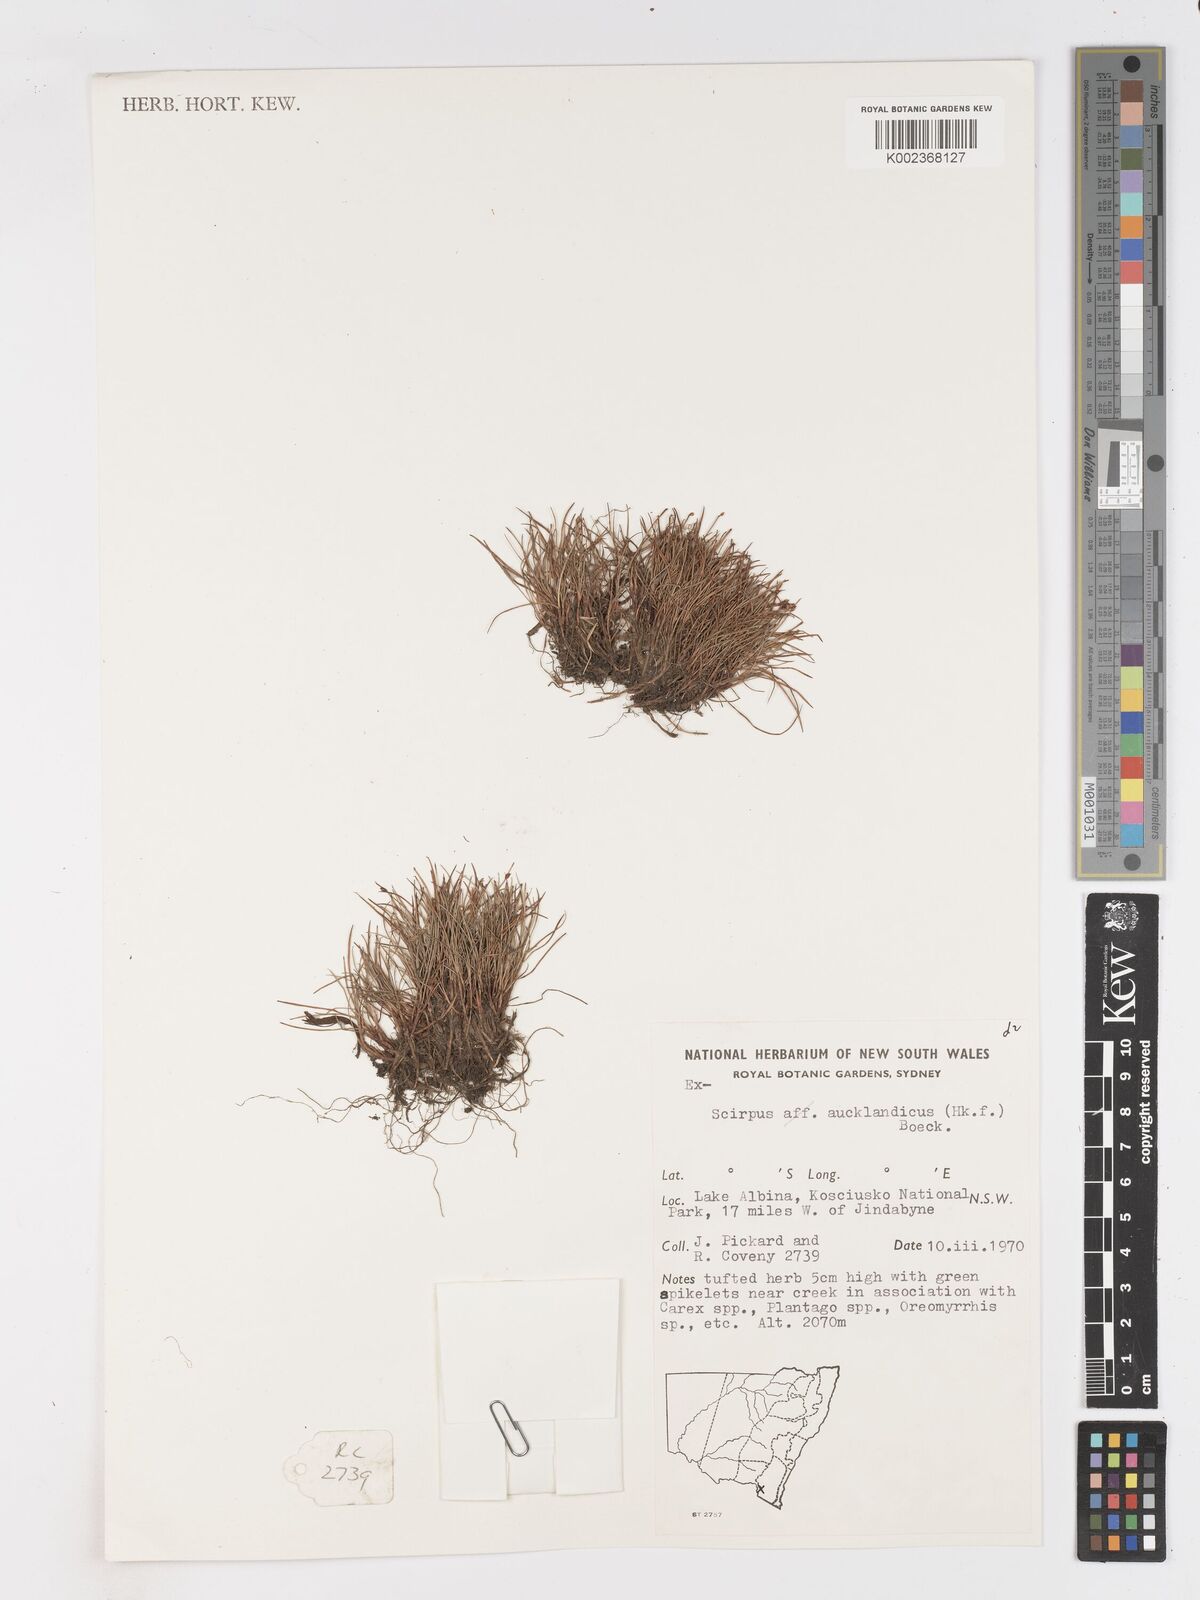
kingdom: Plantae
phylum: Tracheophyta
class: Liliopsida
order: Poales
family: Cyperaceae
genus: Isolepis
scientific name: Isolepis aucklandica
